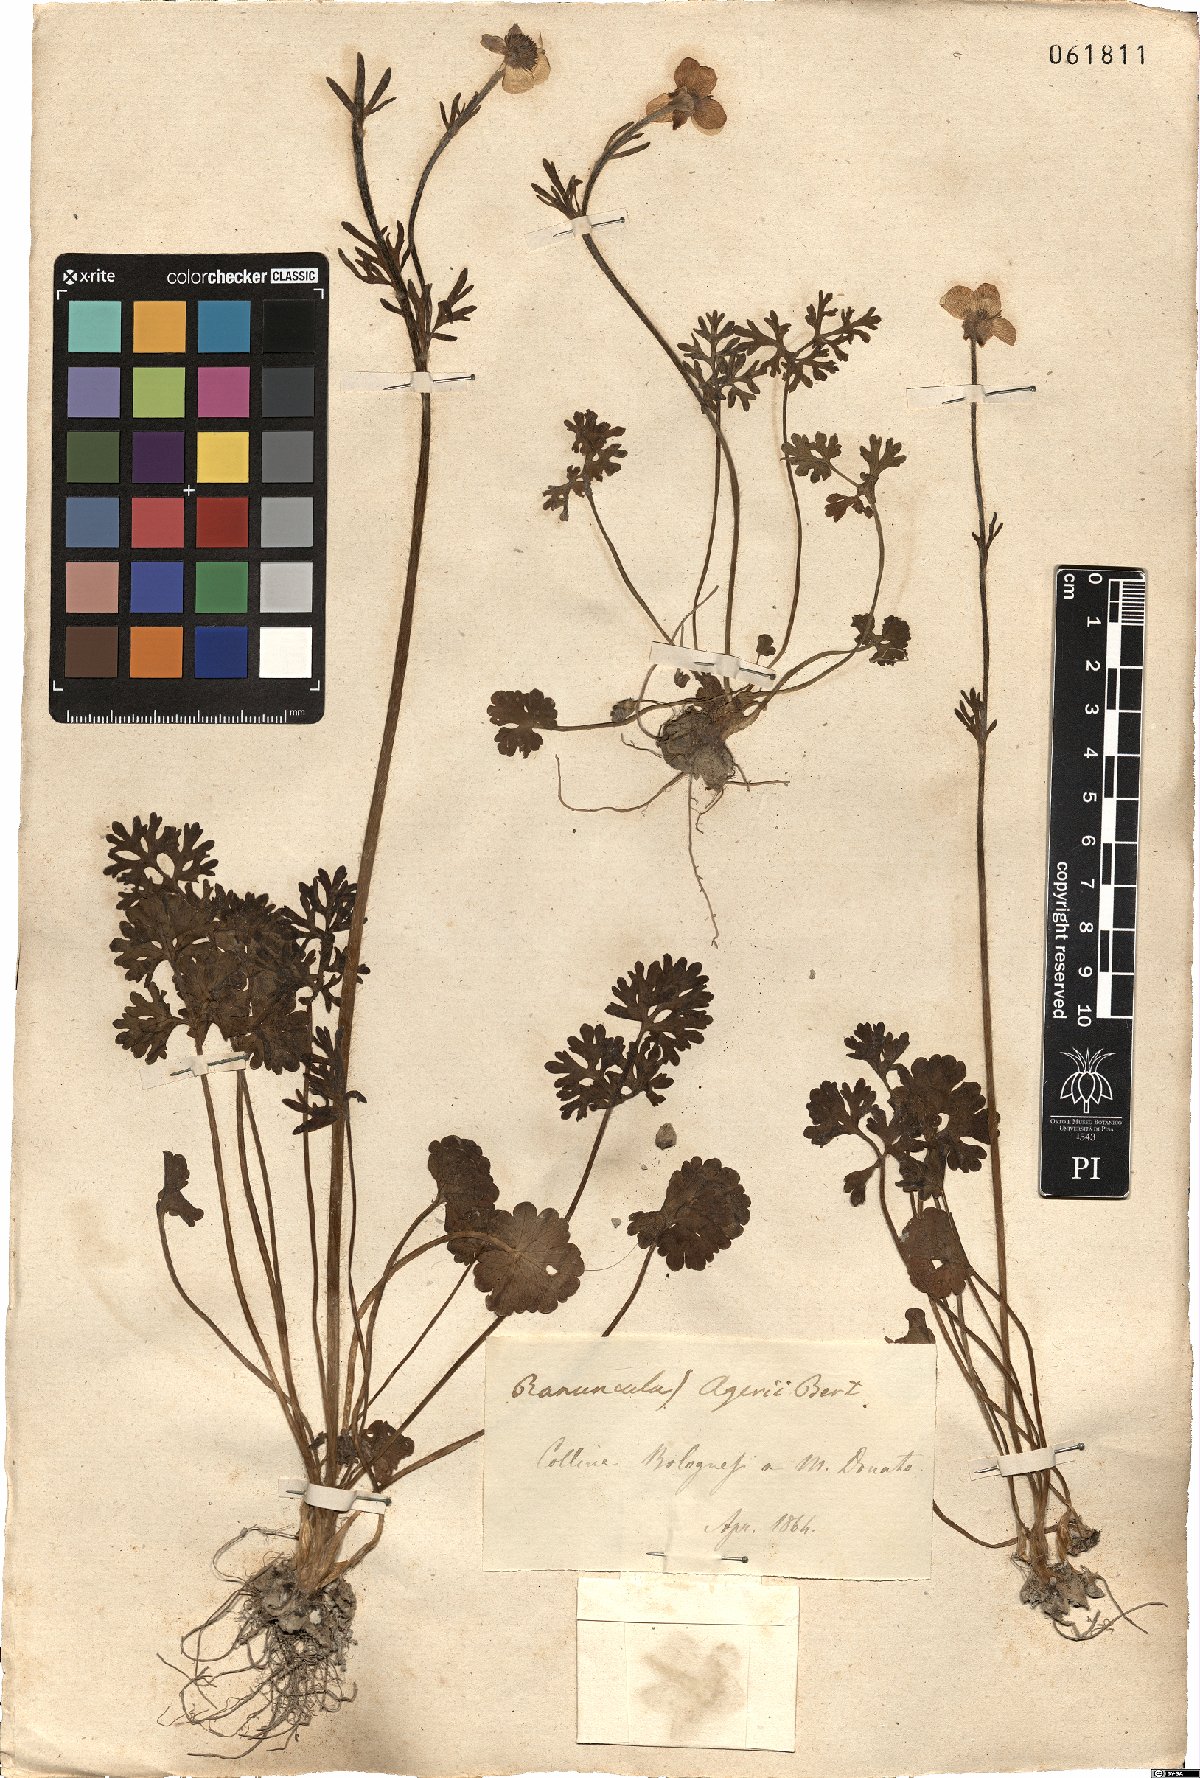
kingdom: Plantae
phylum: Tracheophyta
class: Magnoliopsida
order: Ranunculales
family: Ranunculaceae
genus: Ranunculus
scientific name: Ranunculus gracilis
